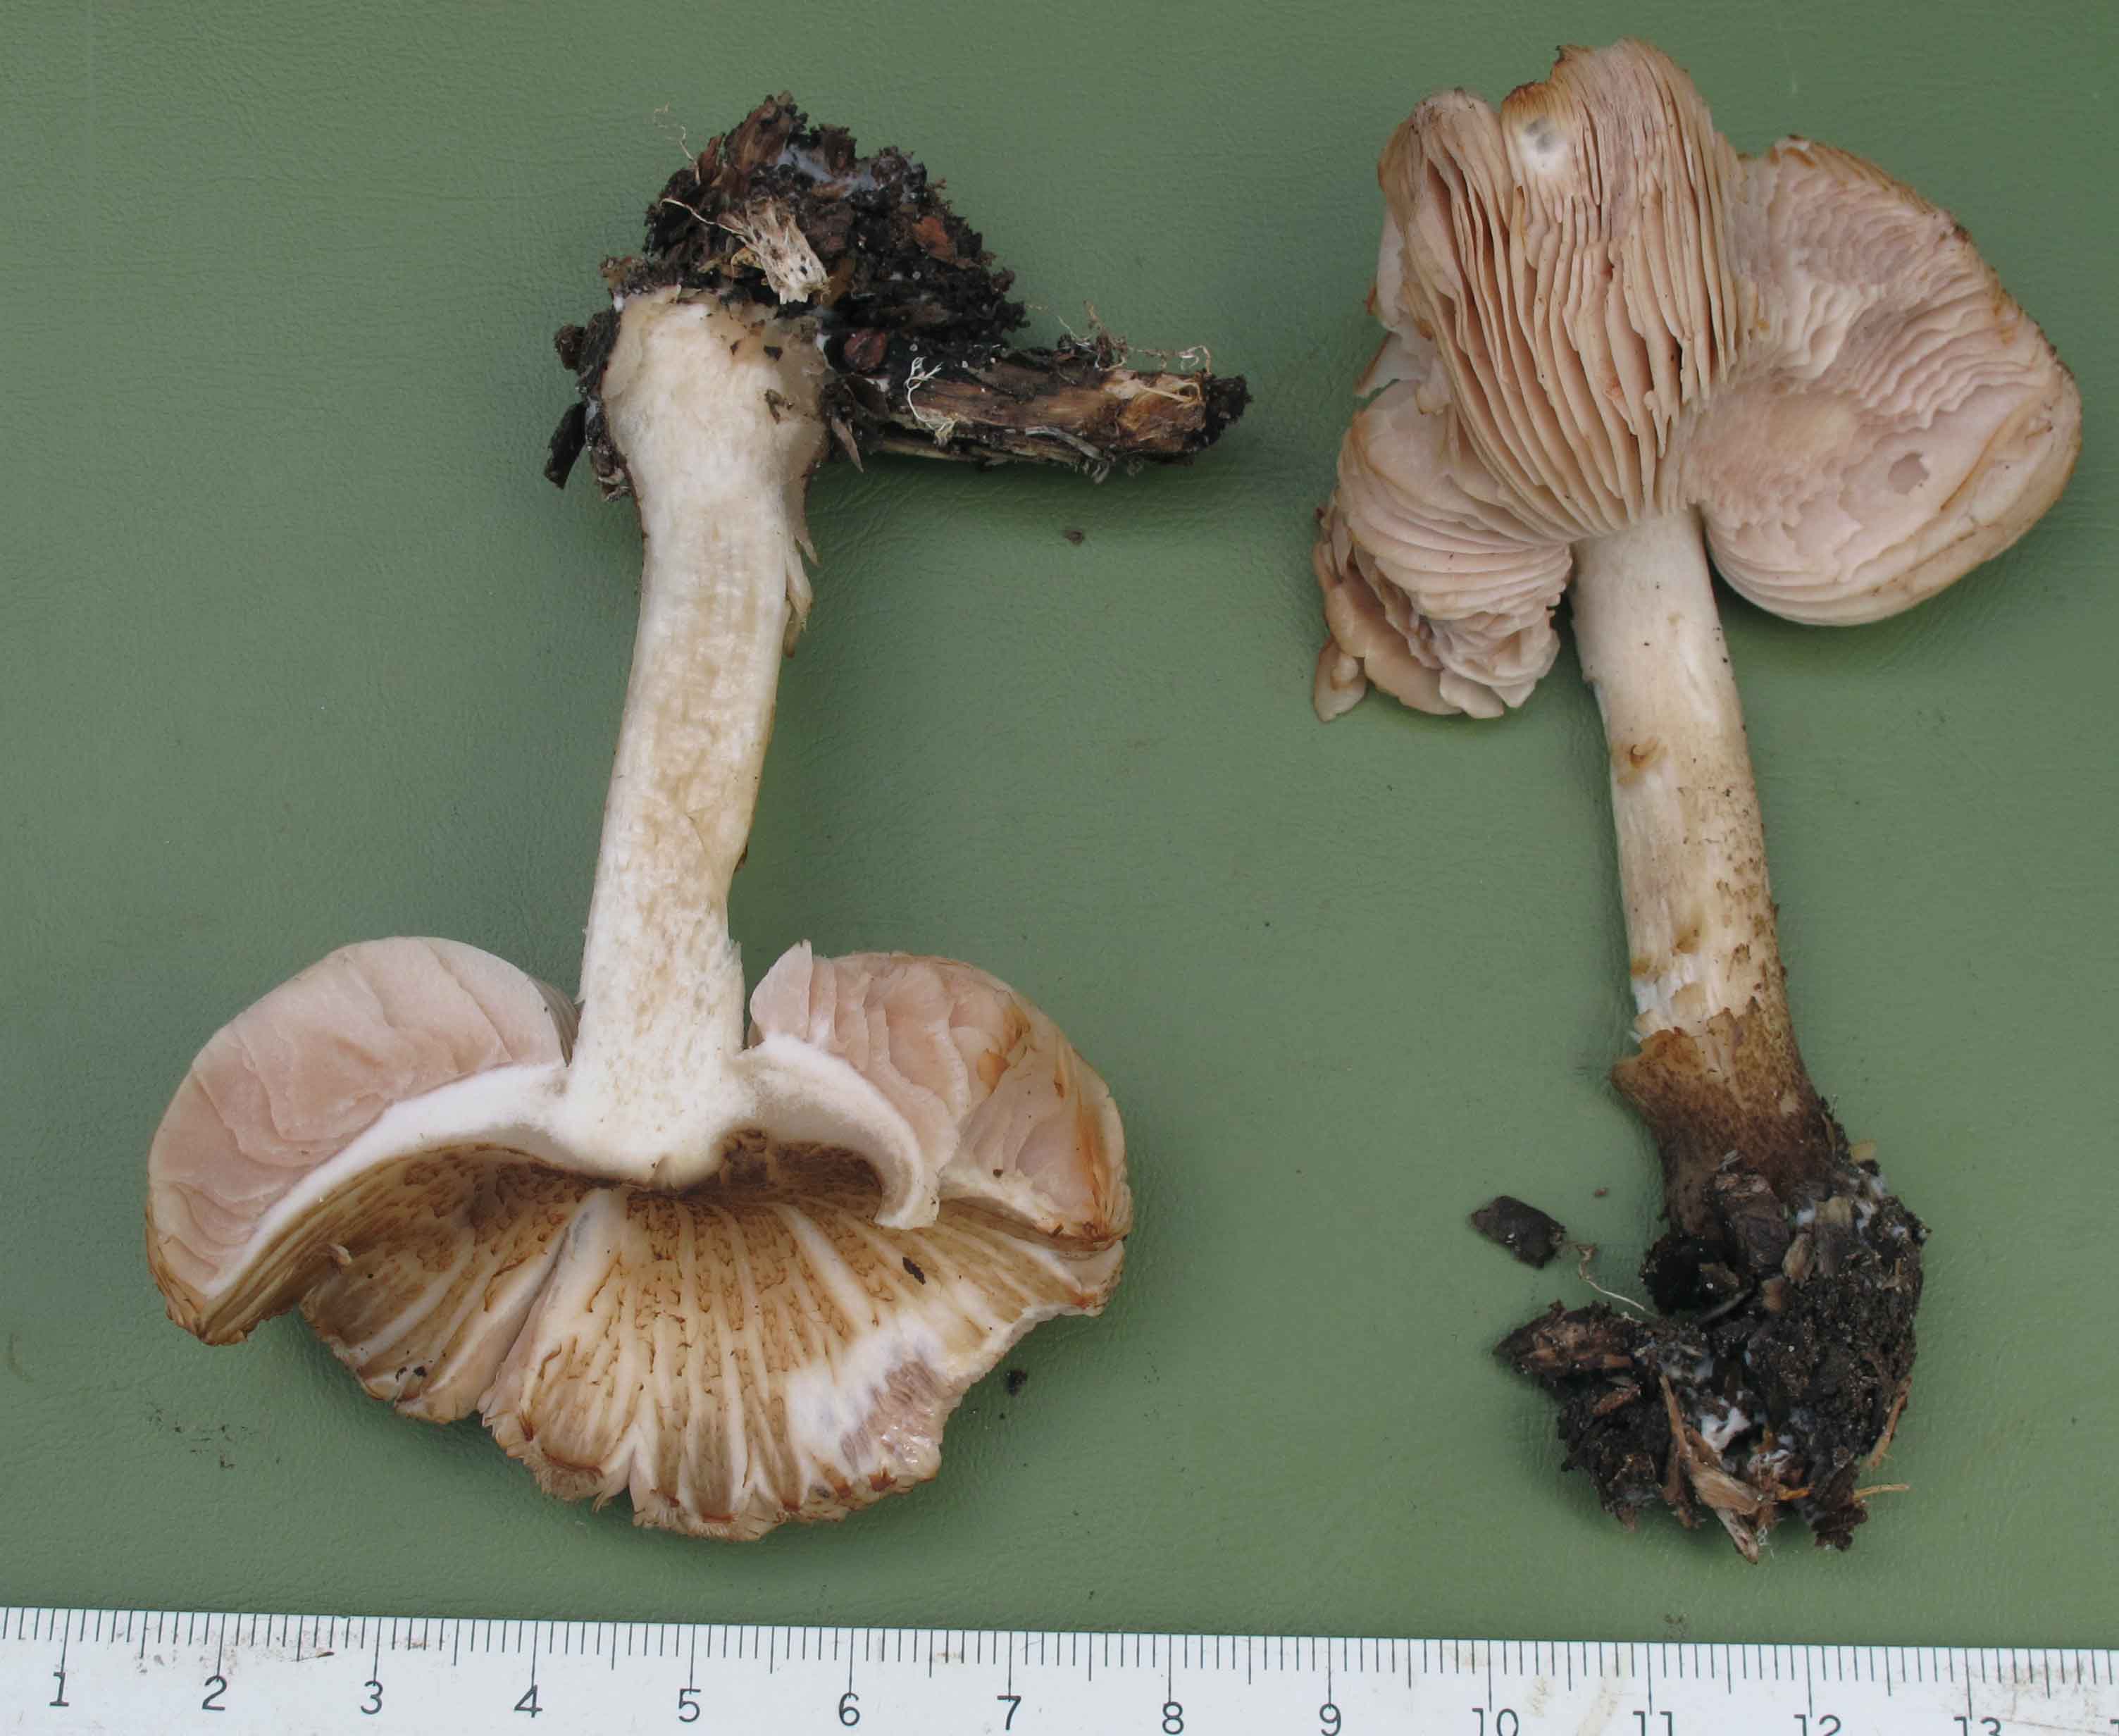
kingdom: Fungi
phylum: Basidiomycota
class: Agaricomycetes
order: Agaricales
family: Pluteaceae
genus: Pluteus
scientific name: Pluteus cervinus
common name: sodfarvet skærmhat
